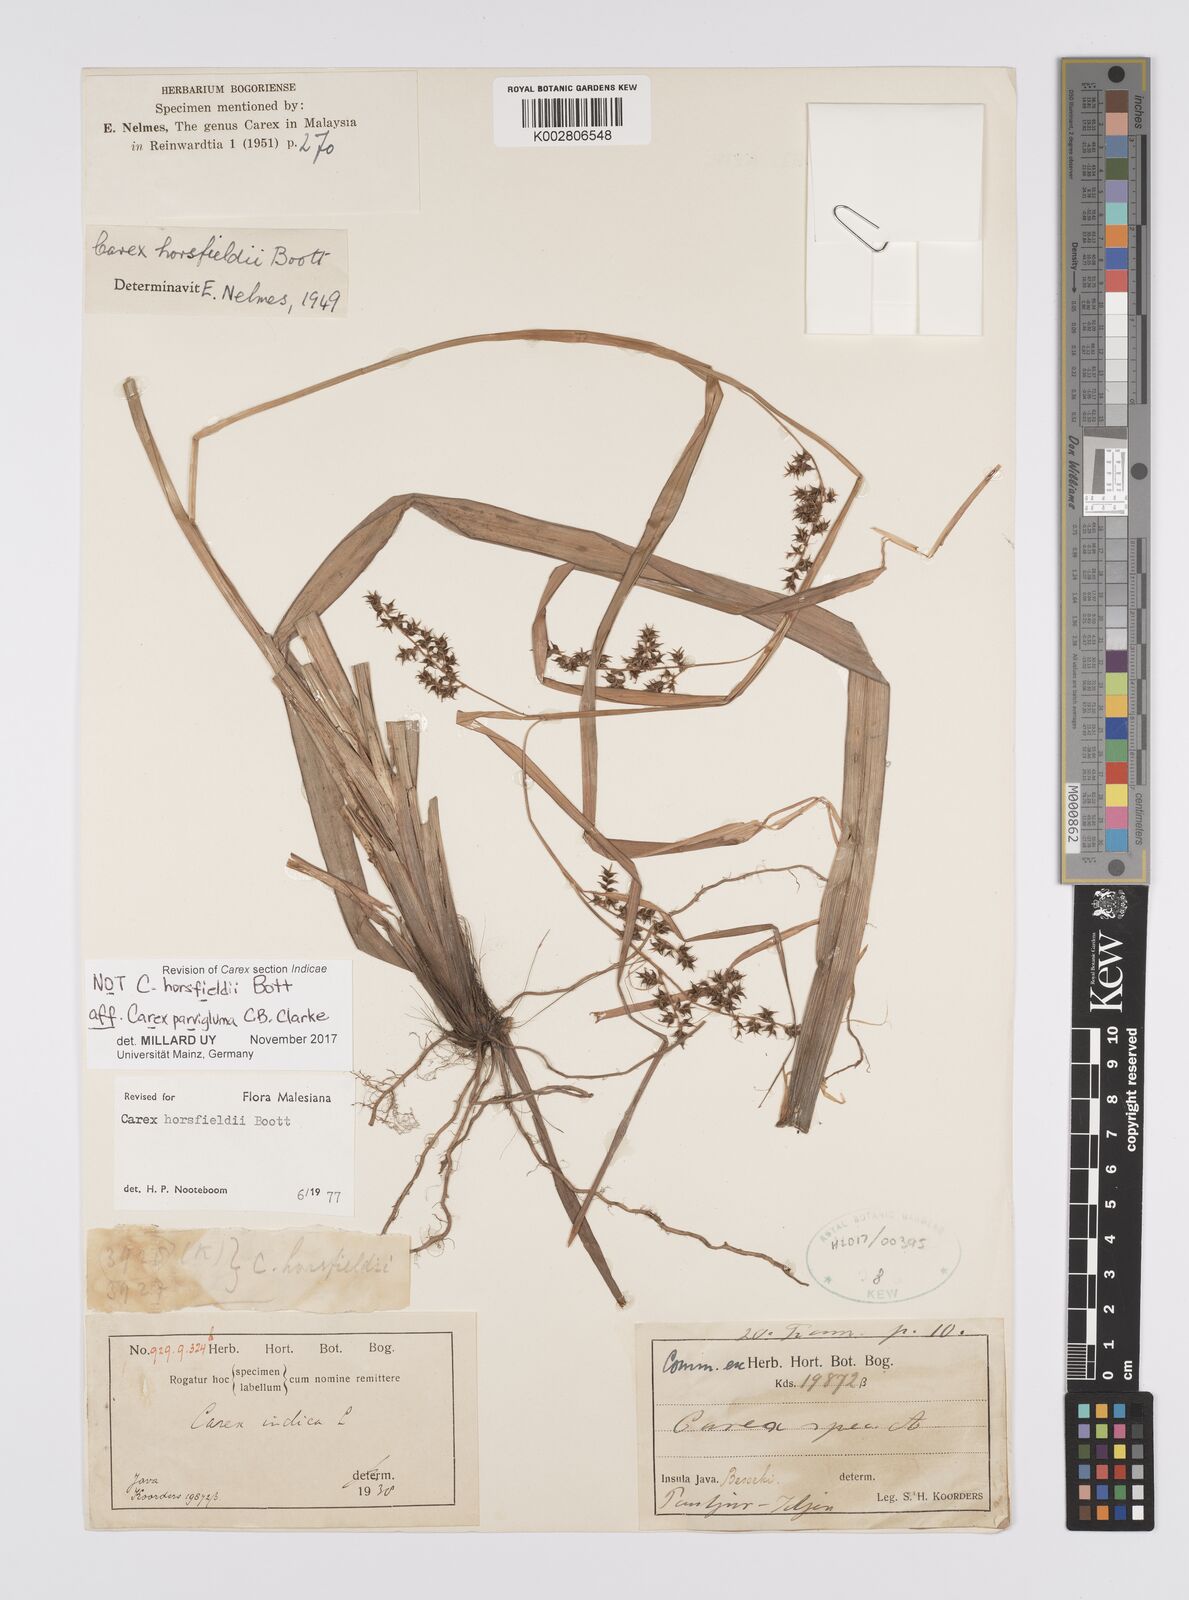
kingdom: Plantae
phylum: Tracheophyta
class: Liliopsida
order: Poales
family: Cyperaceae
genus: Carex
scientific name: Carex parvigluma
